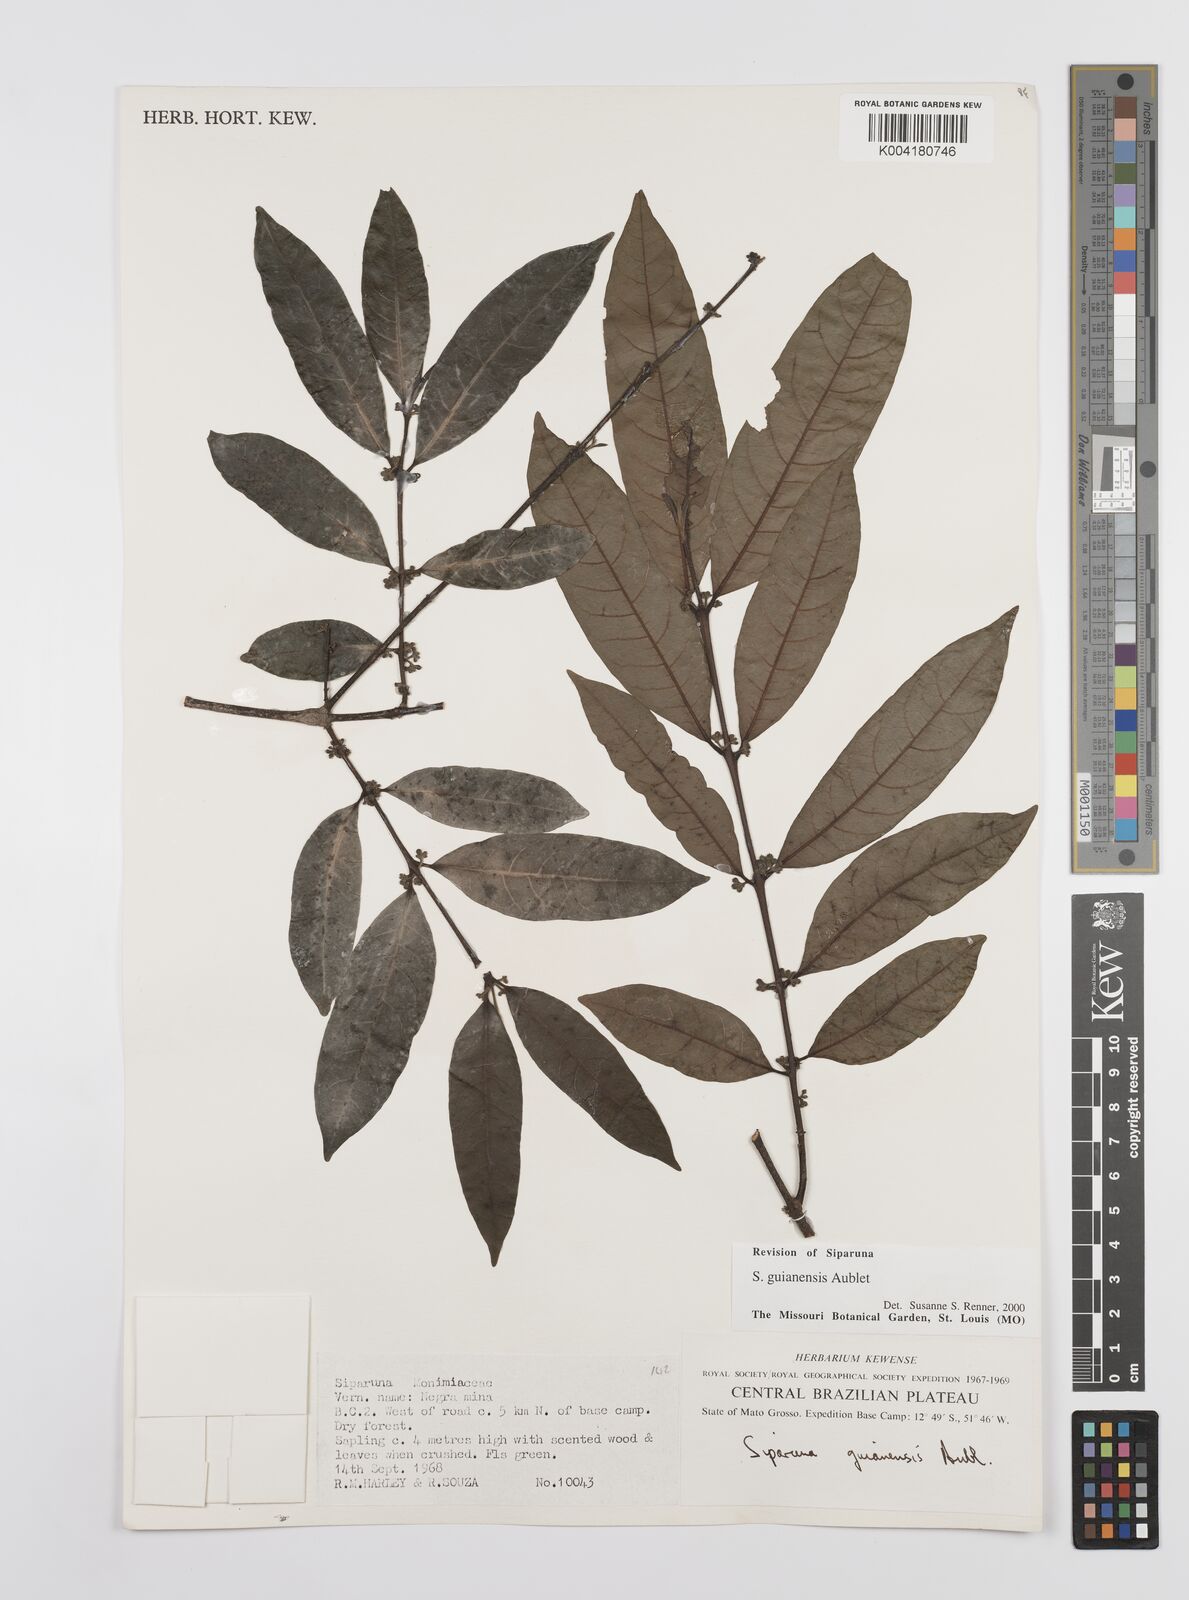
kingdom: Plantae
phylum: Tracheophyta
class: Magnoliopsida
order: Laurales
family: Siparunaceae
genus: Siparuna
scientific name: Siparuna guianensis
